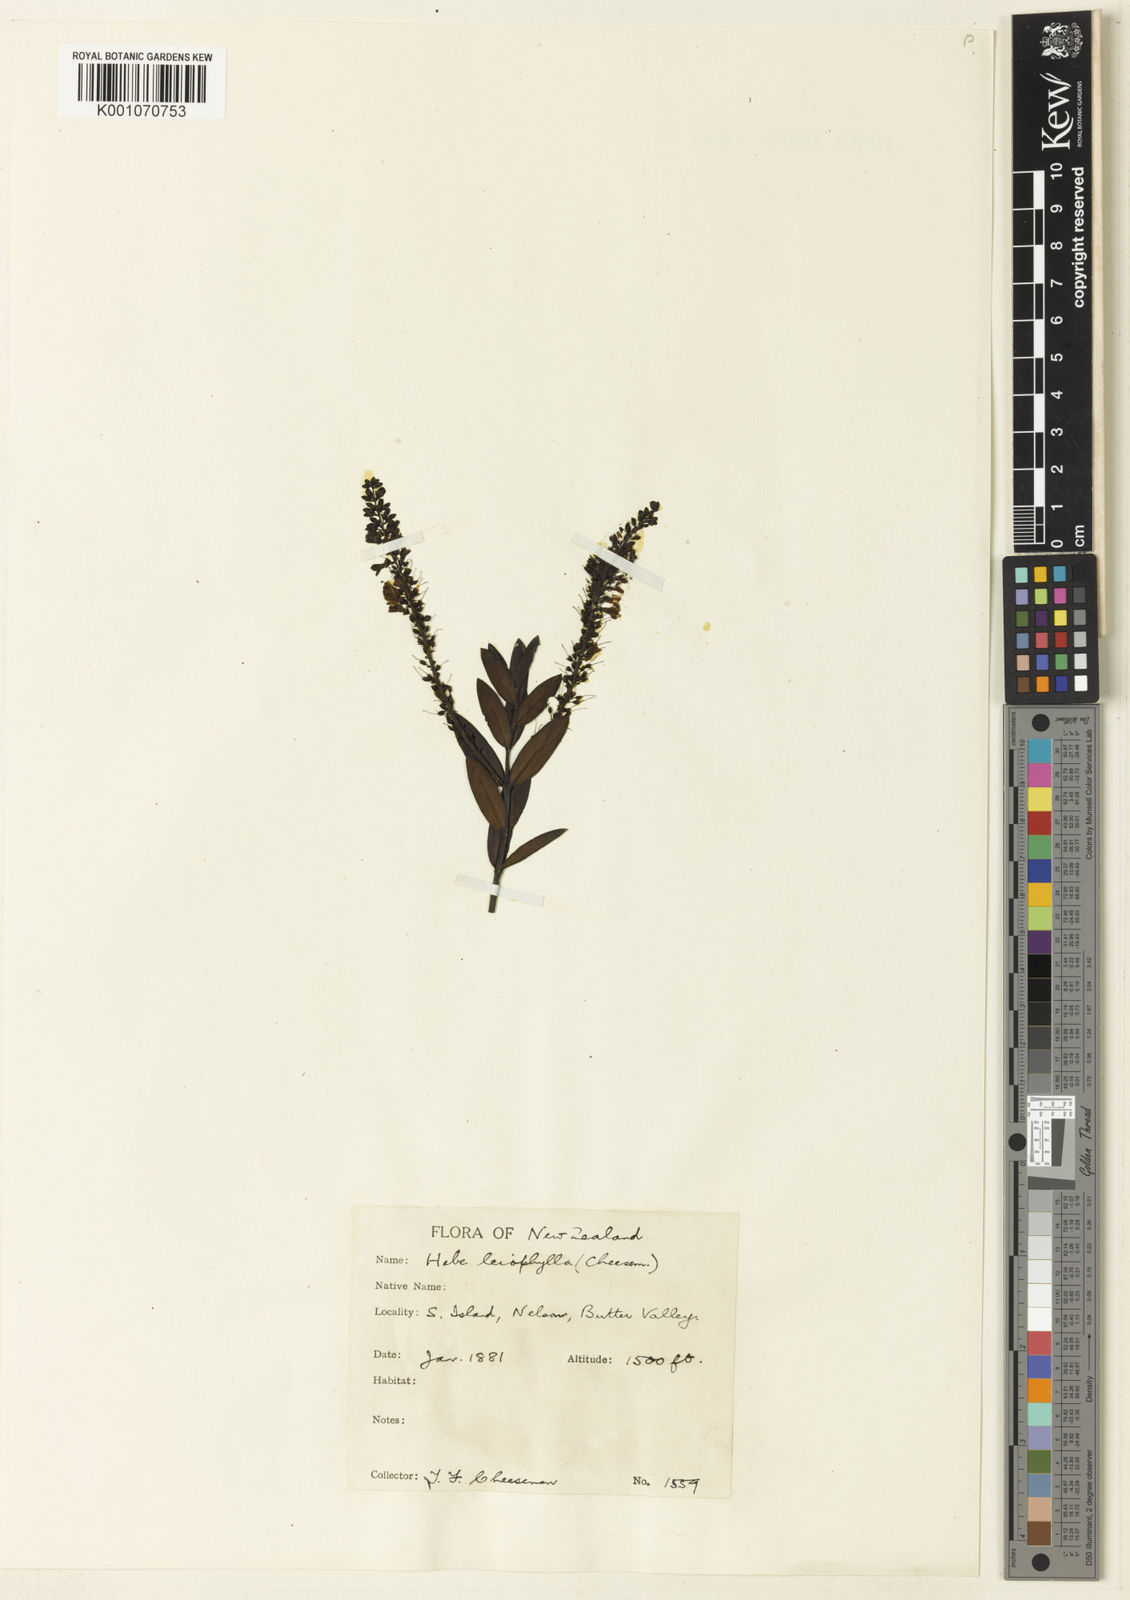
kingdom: Plantae
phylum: Tracheophyta
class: Magnoliopsida
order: Lamiales
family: Plantaginaceae
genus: Veronica
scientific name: Veronica leiophylla
